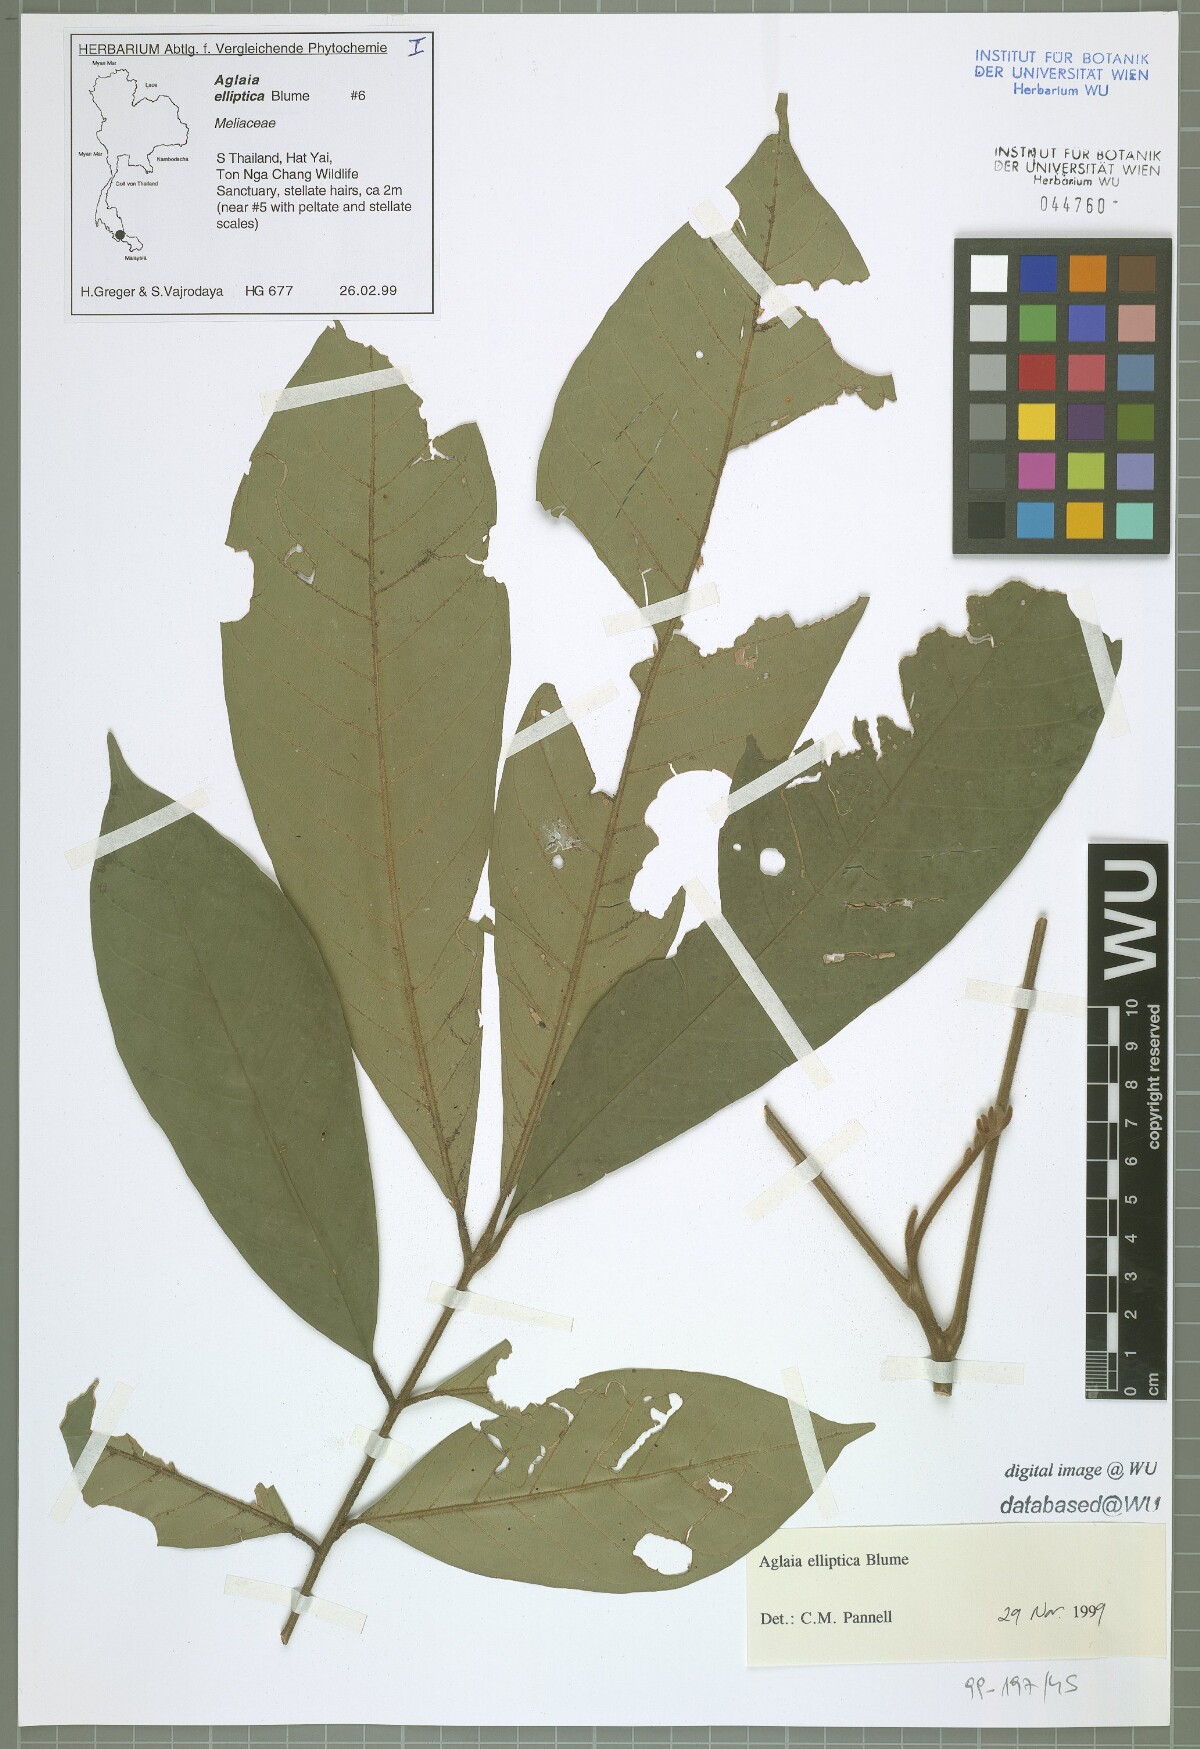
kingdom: Plantae
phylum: Tracheophyta
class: Magnoliopsida
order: Sapindales
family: Meliaceae
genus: Aglaia
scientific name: Aglaia elliptica
